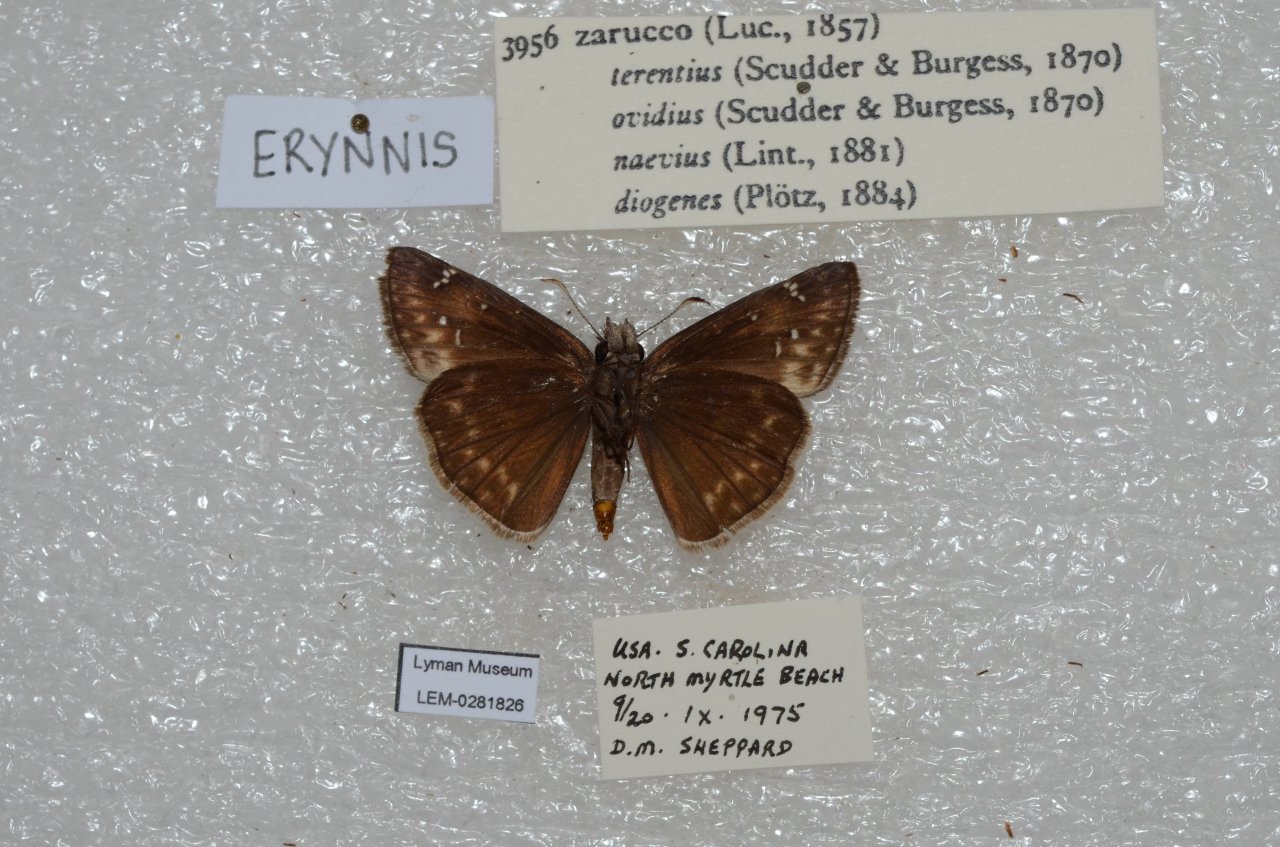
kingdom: Animalia
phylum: Arthropoda
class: Insecta
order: Lepidoptera
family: Hesperiidae
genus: Erynnis
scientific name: Erynnis zarucco
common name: Zarucco Duskywing
